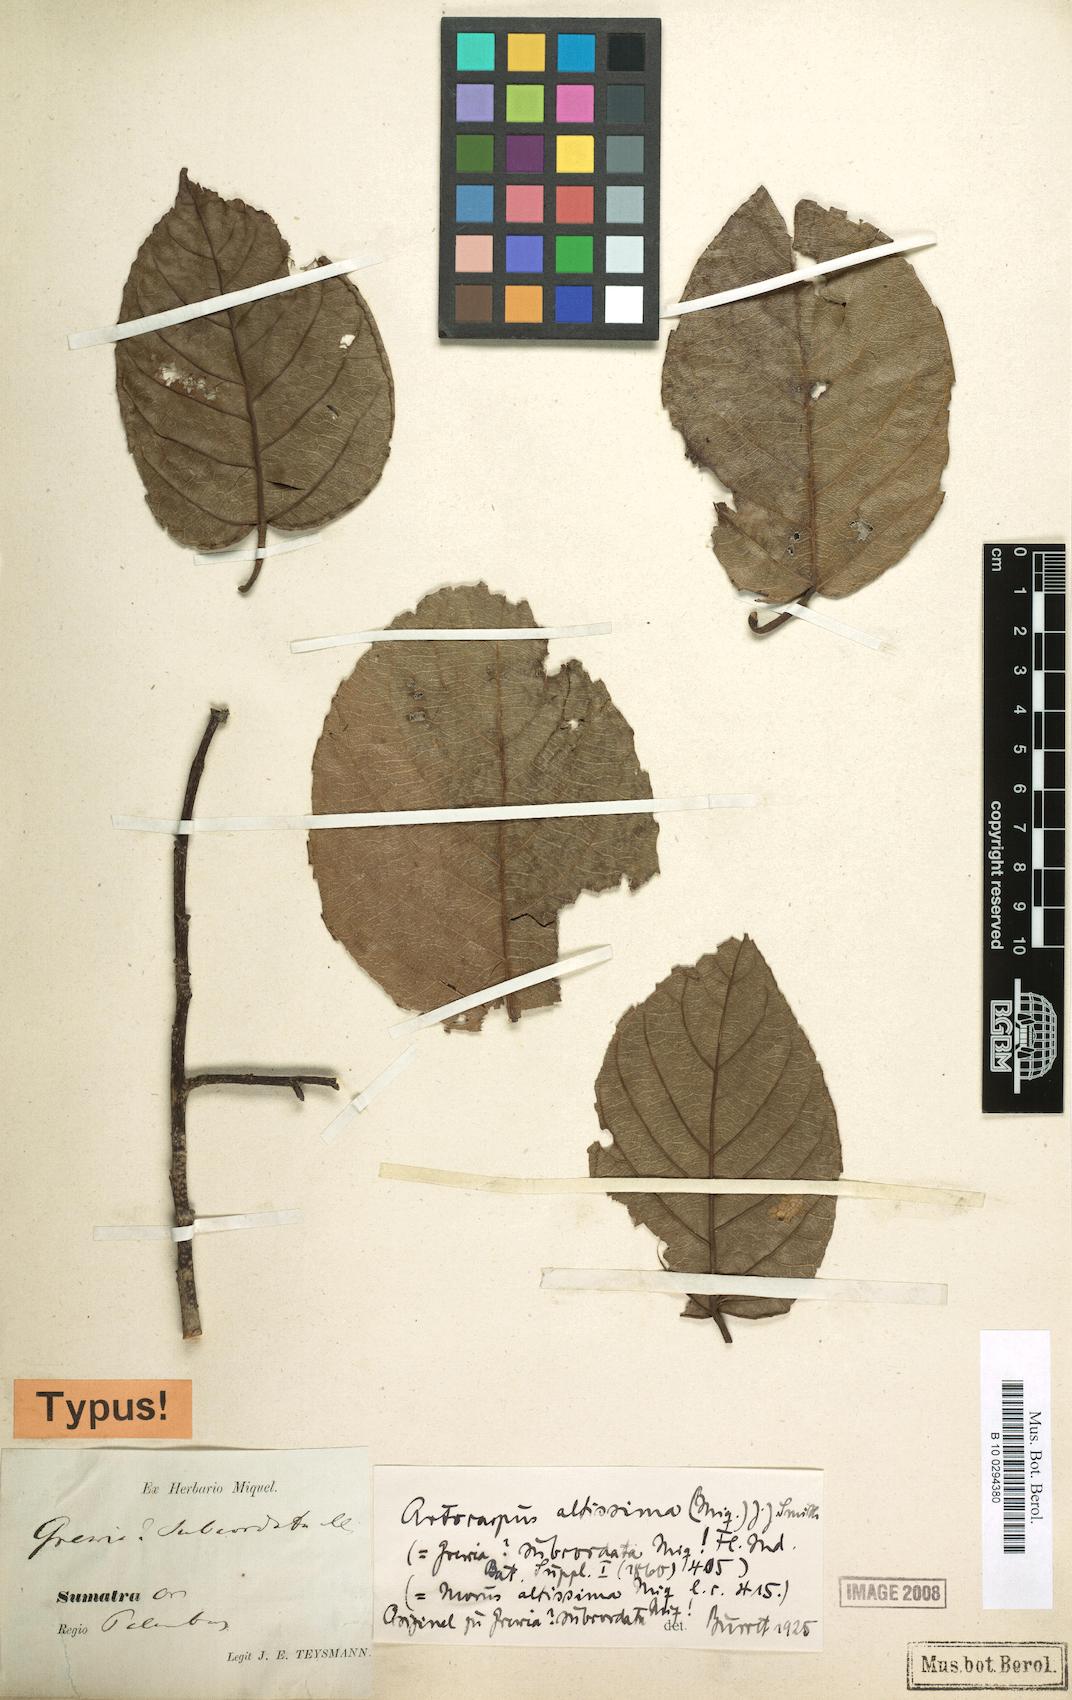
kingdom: Plantae
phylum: Tracheophyta
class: Magnoliopsida
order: Rosales
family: Moraceae
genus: Artocarpus
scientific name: Artocarpus altissimus
